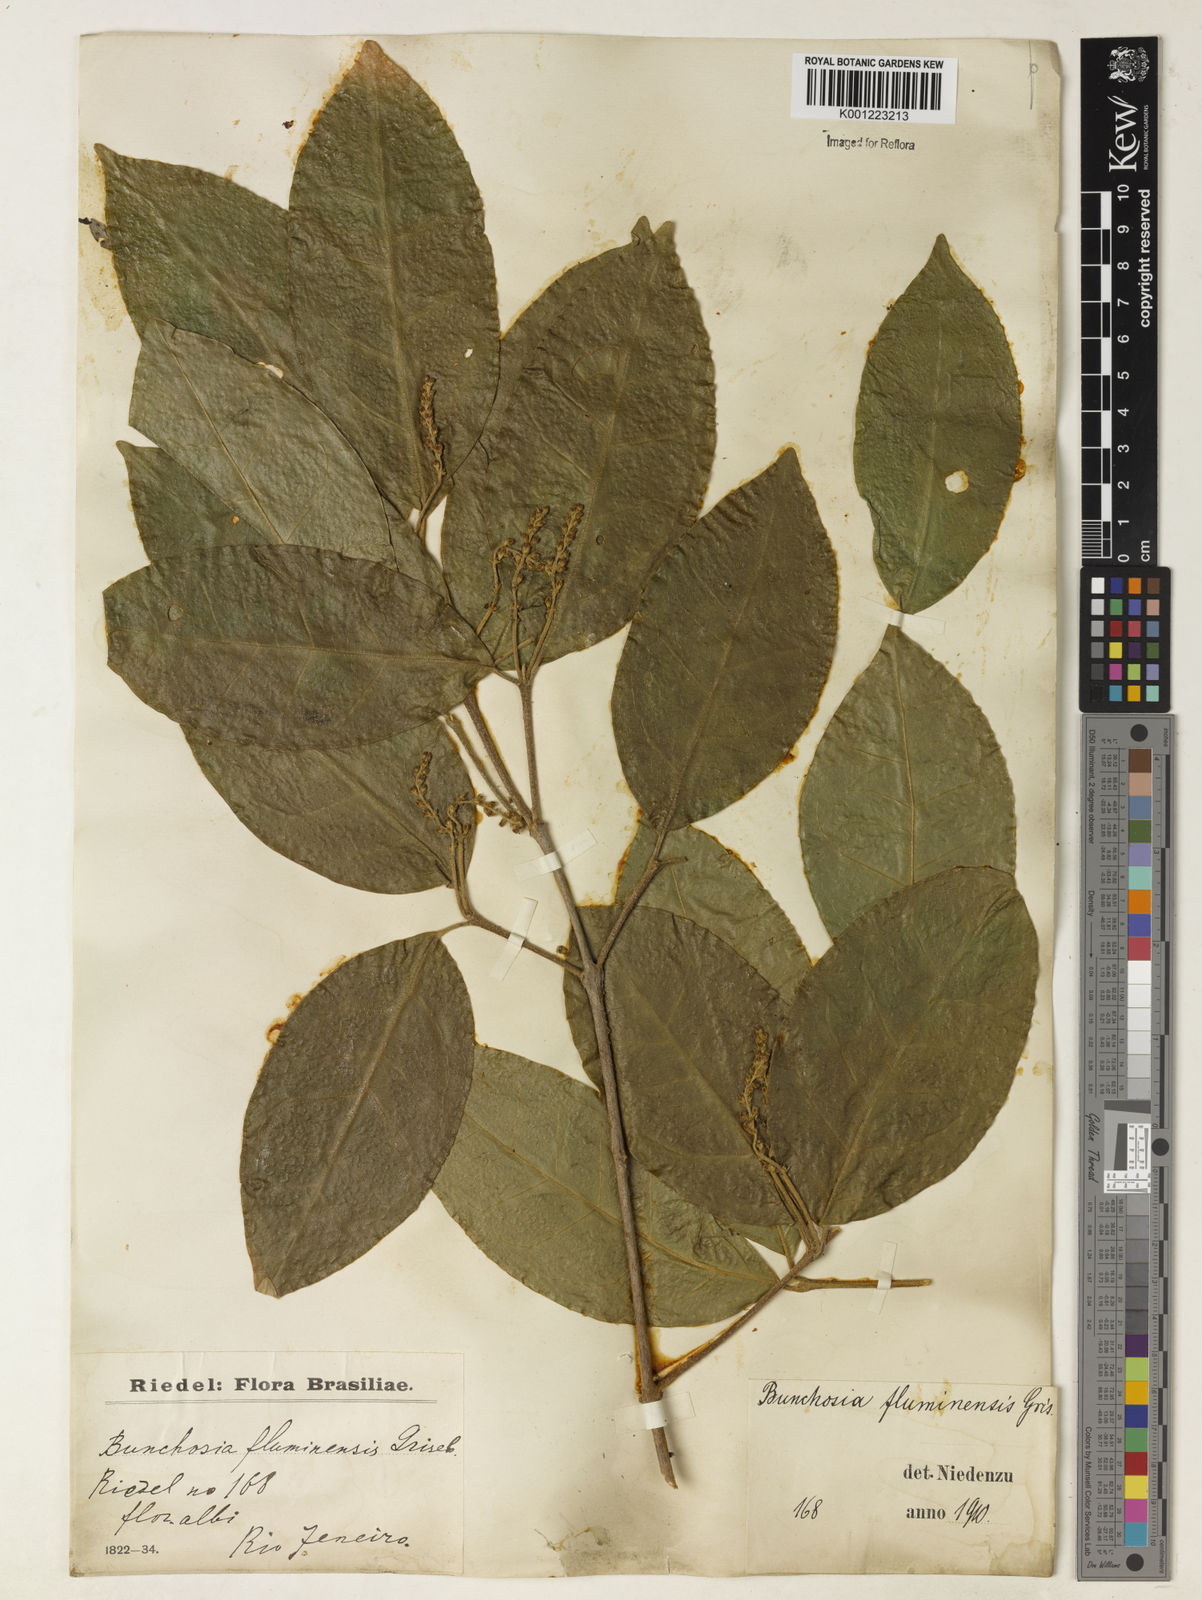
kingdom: Plantae
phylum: Tracheophyta
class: Magnoliopsida
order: Malpighiales
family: Malpighiaceae
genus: Bunchosia
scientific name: Bunchosia fluminensis
